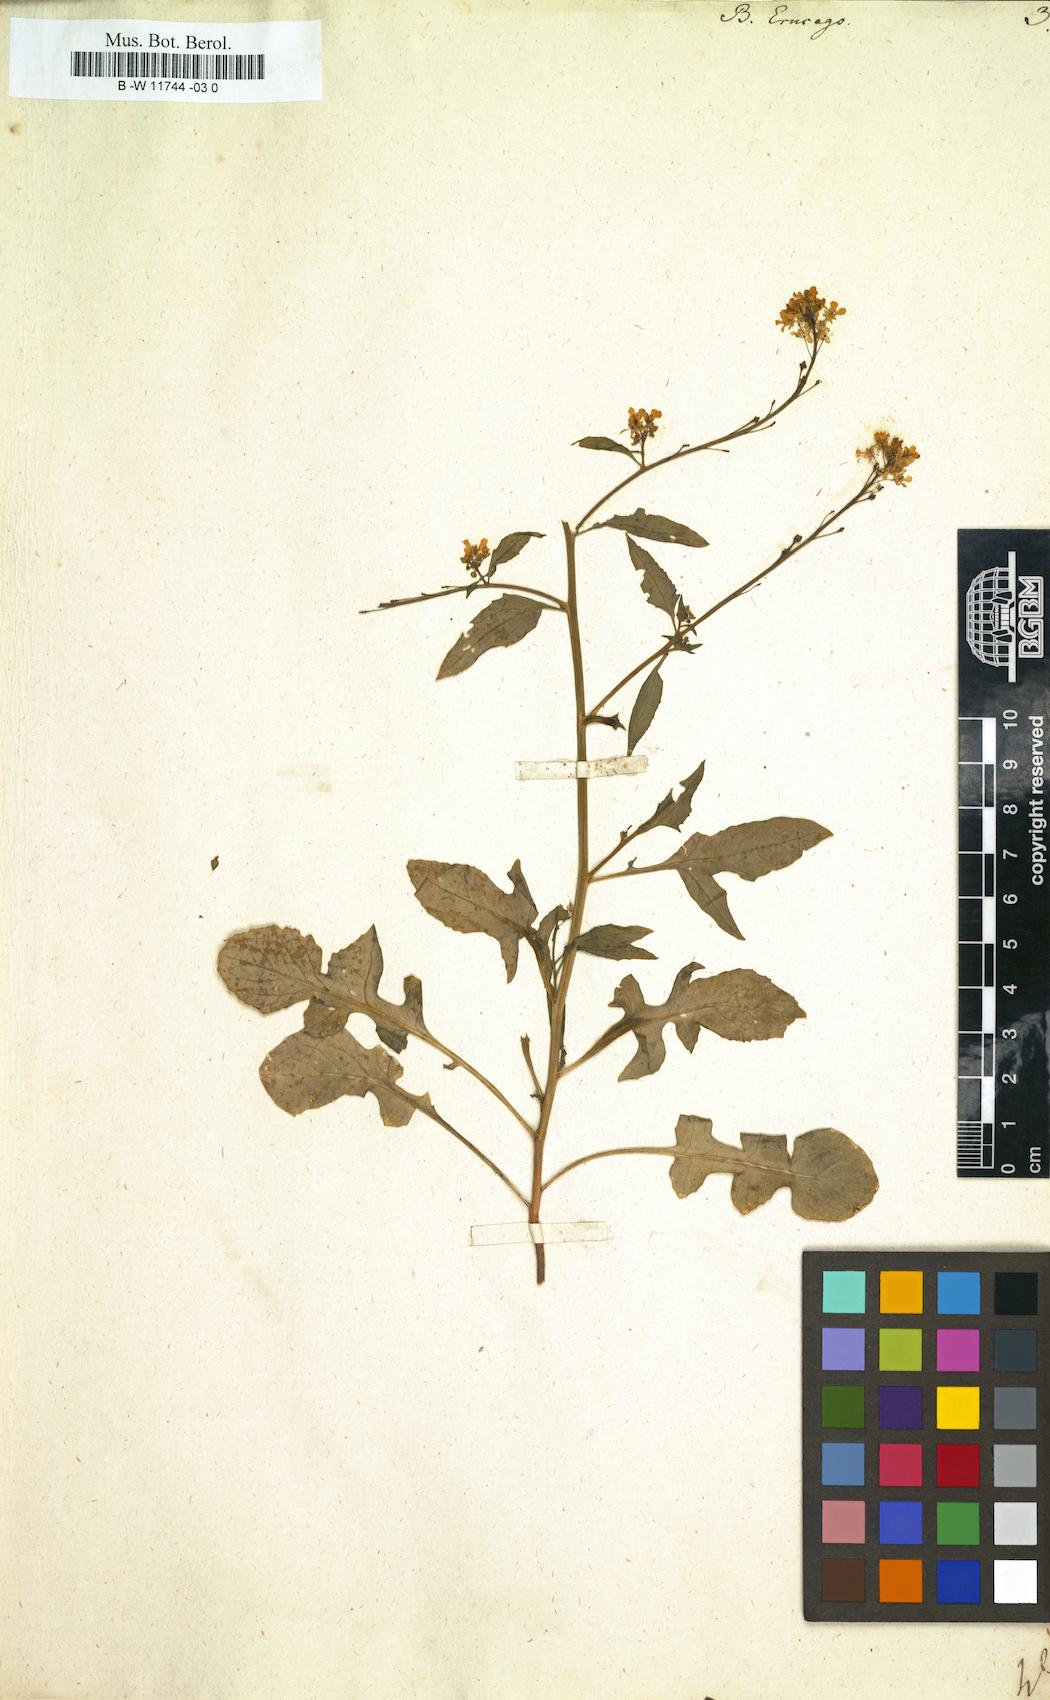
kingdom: Plantae
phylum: Tracheophyta
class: Magnoliopsida
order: Brassicales
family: Brassicaceae
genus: Bunias
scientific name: Bunias erucago
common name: Southern warty-cabbage
